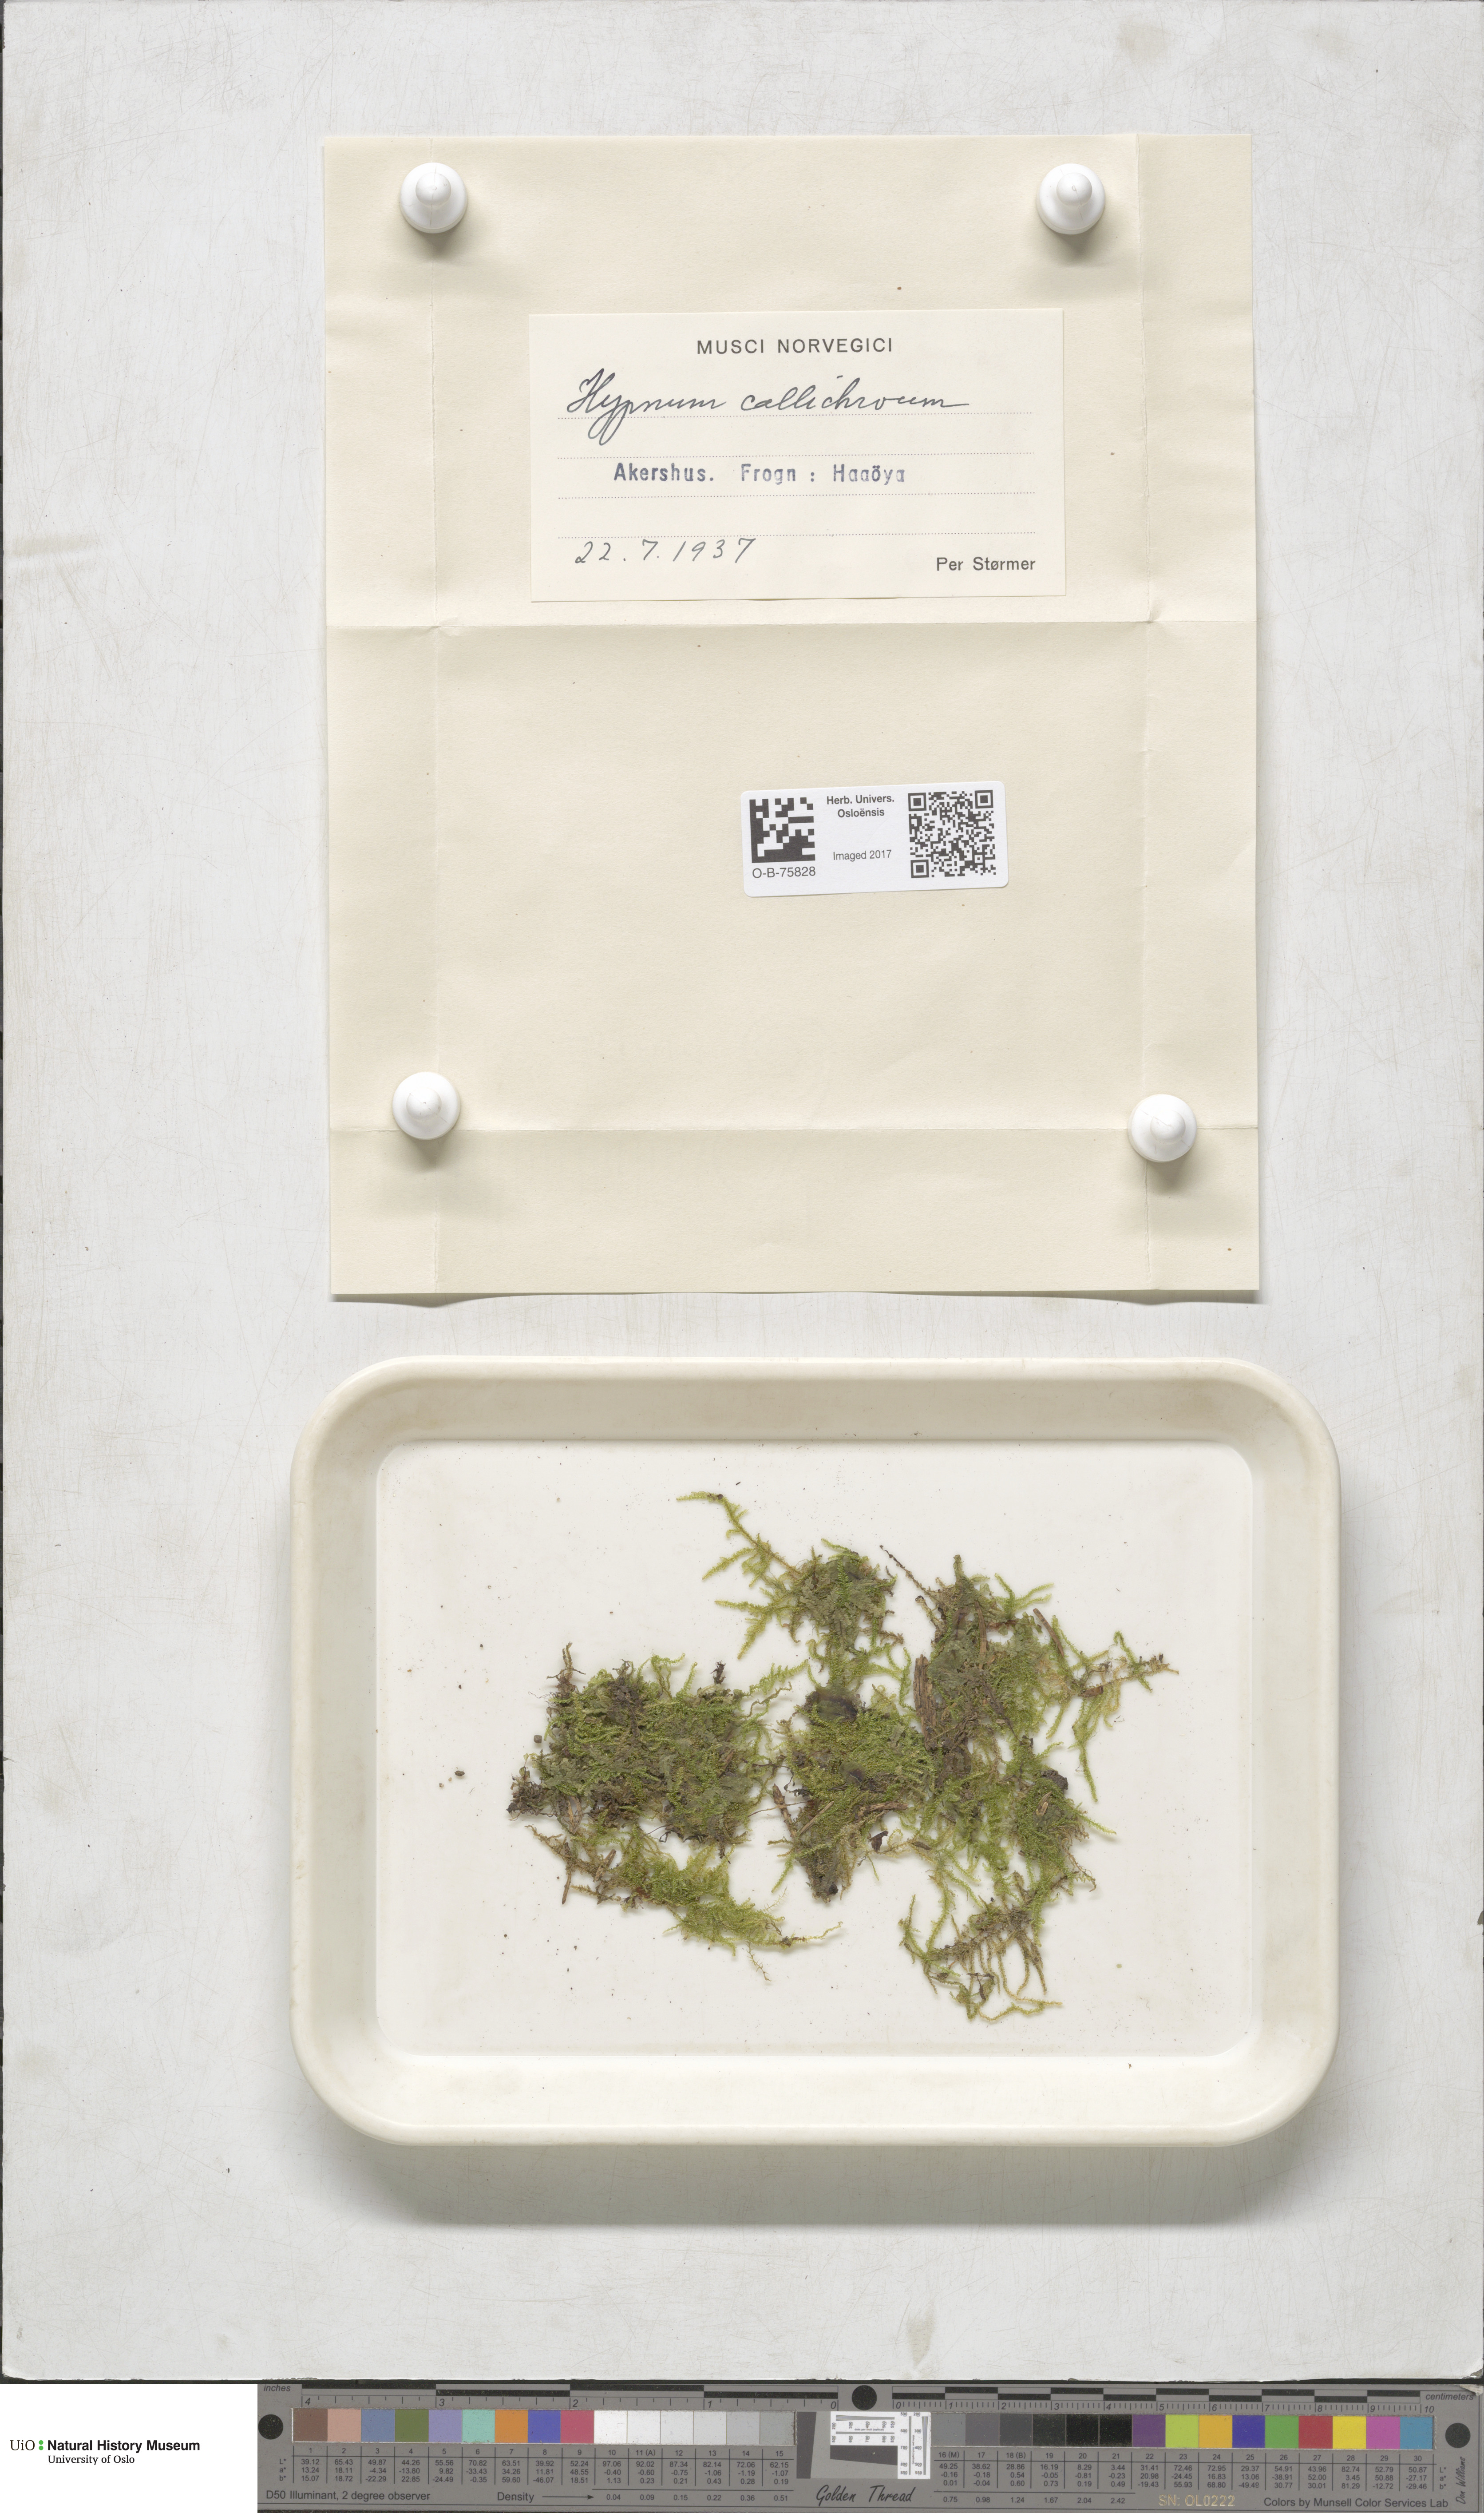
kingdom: Plantae
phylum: Bryophyta
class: Bryopsida
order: Hypnales
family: Stereodontaceae
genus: Stereodon
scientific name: Stereodon callichrous
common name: Downy plait-moss
